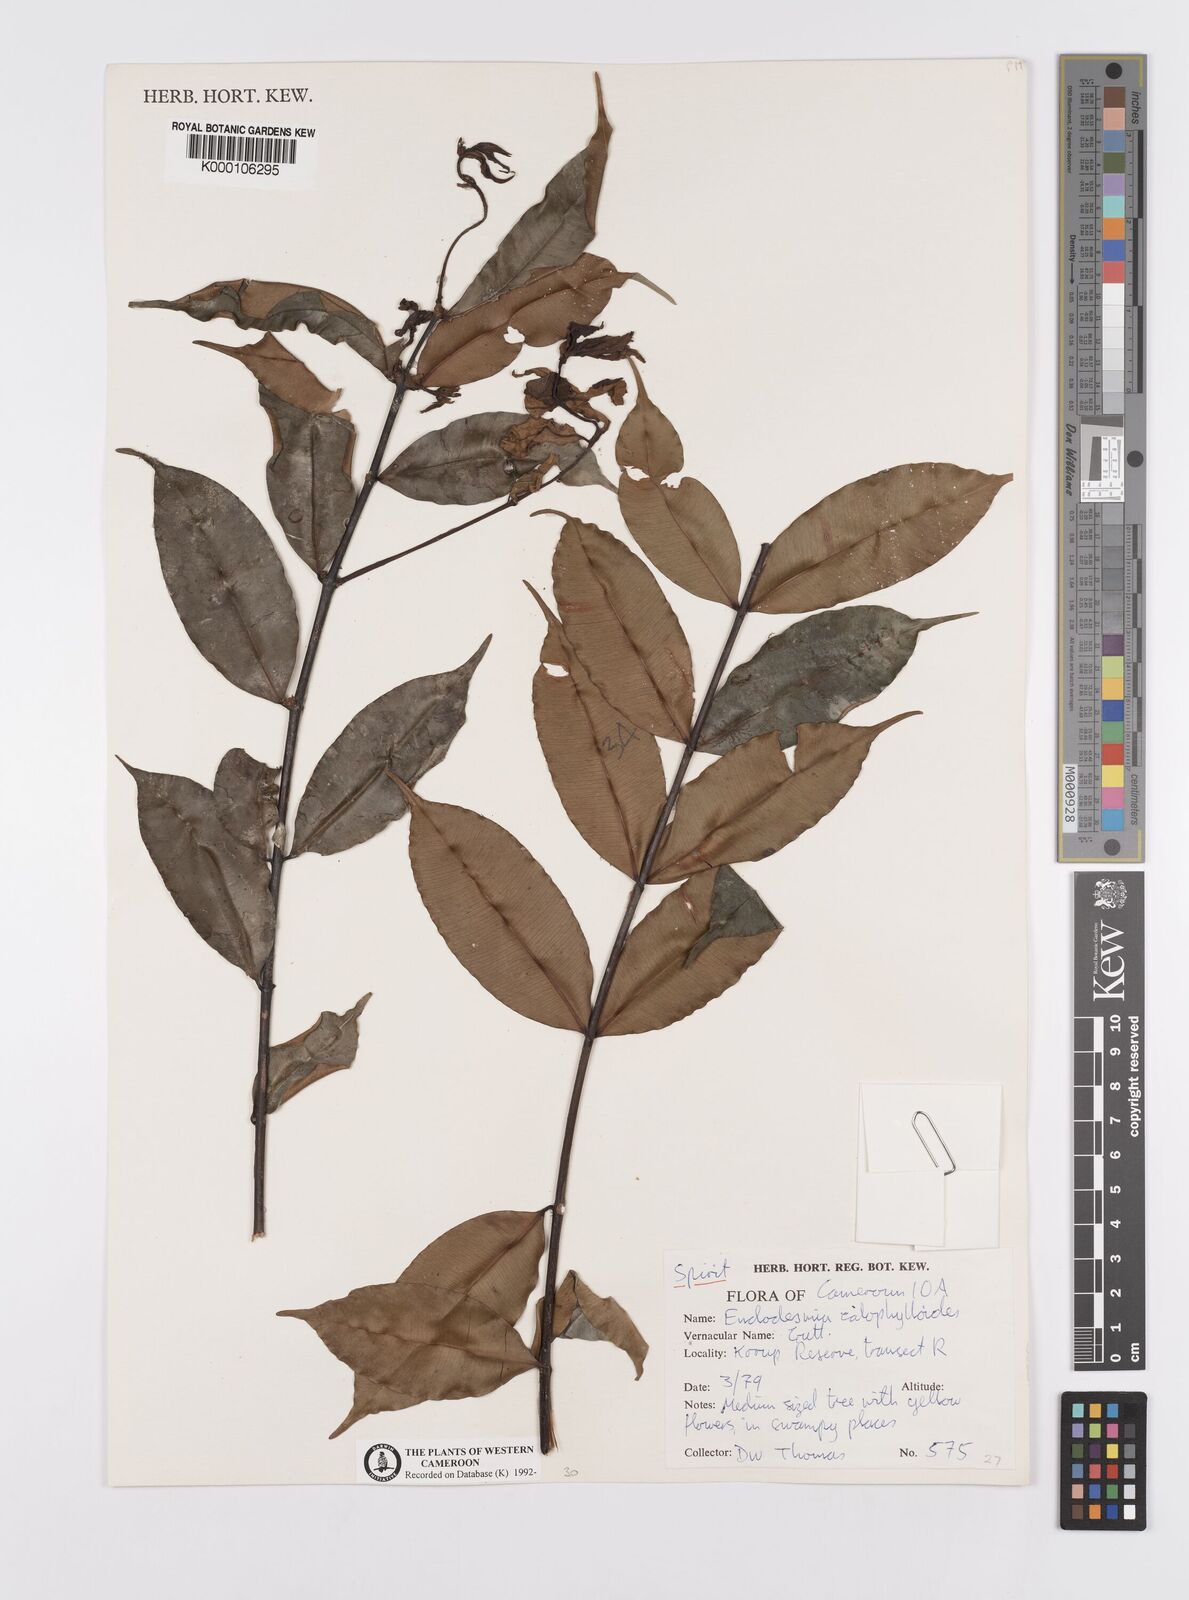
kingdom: Plantae
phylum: Tracheophyta
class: Magnoliopsida
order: Malpighiales
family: Calophyllaceae
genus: Endodesmia
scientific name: Endodesmia calophylloides
